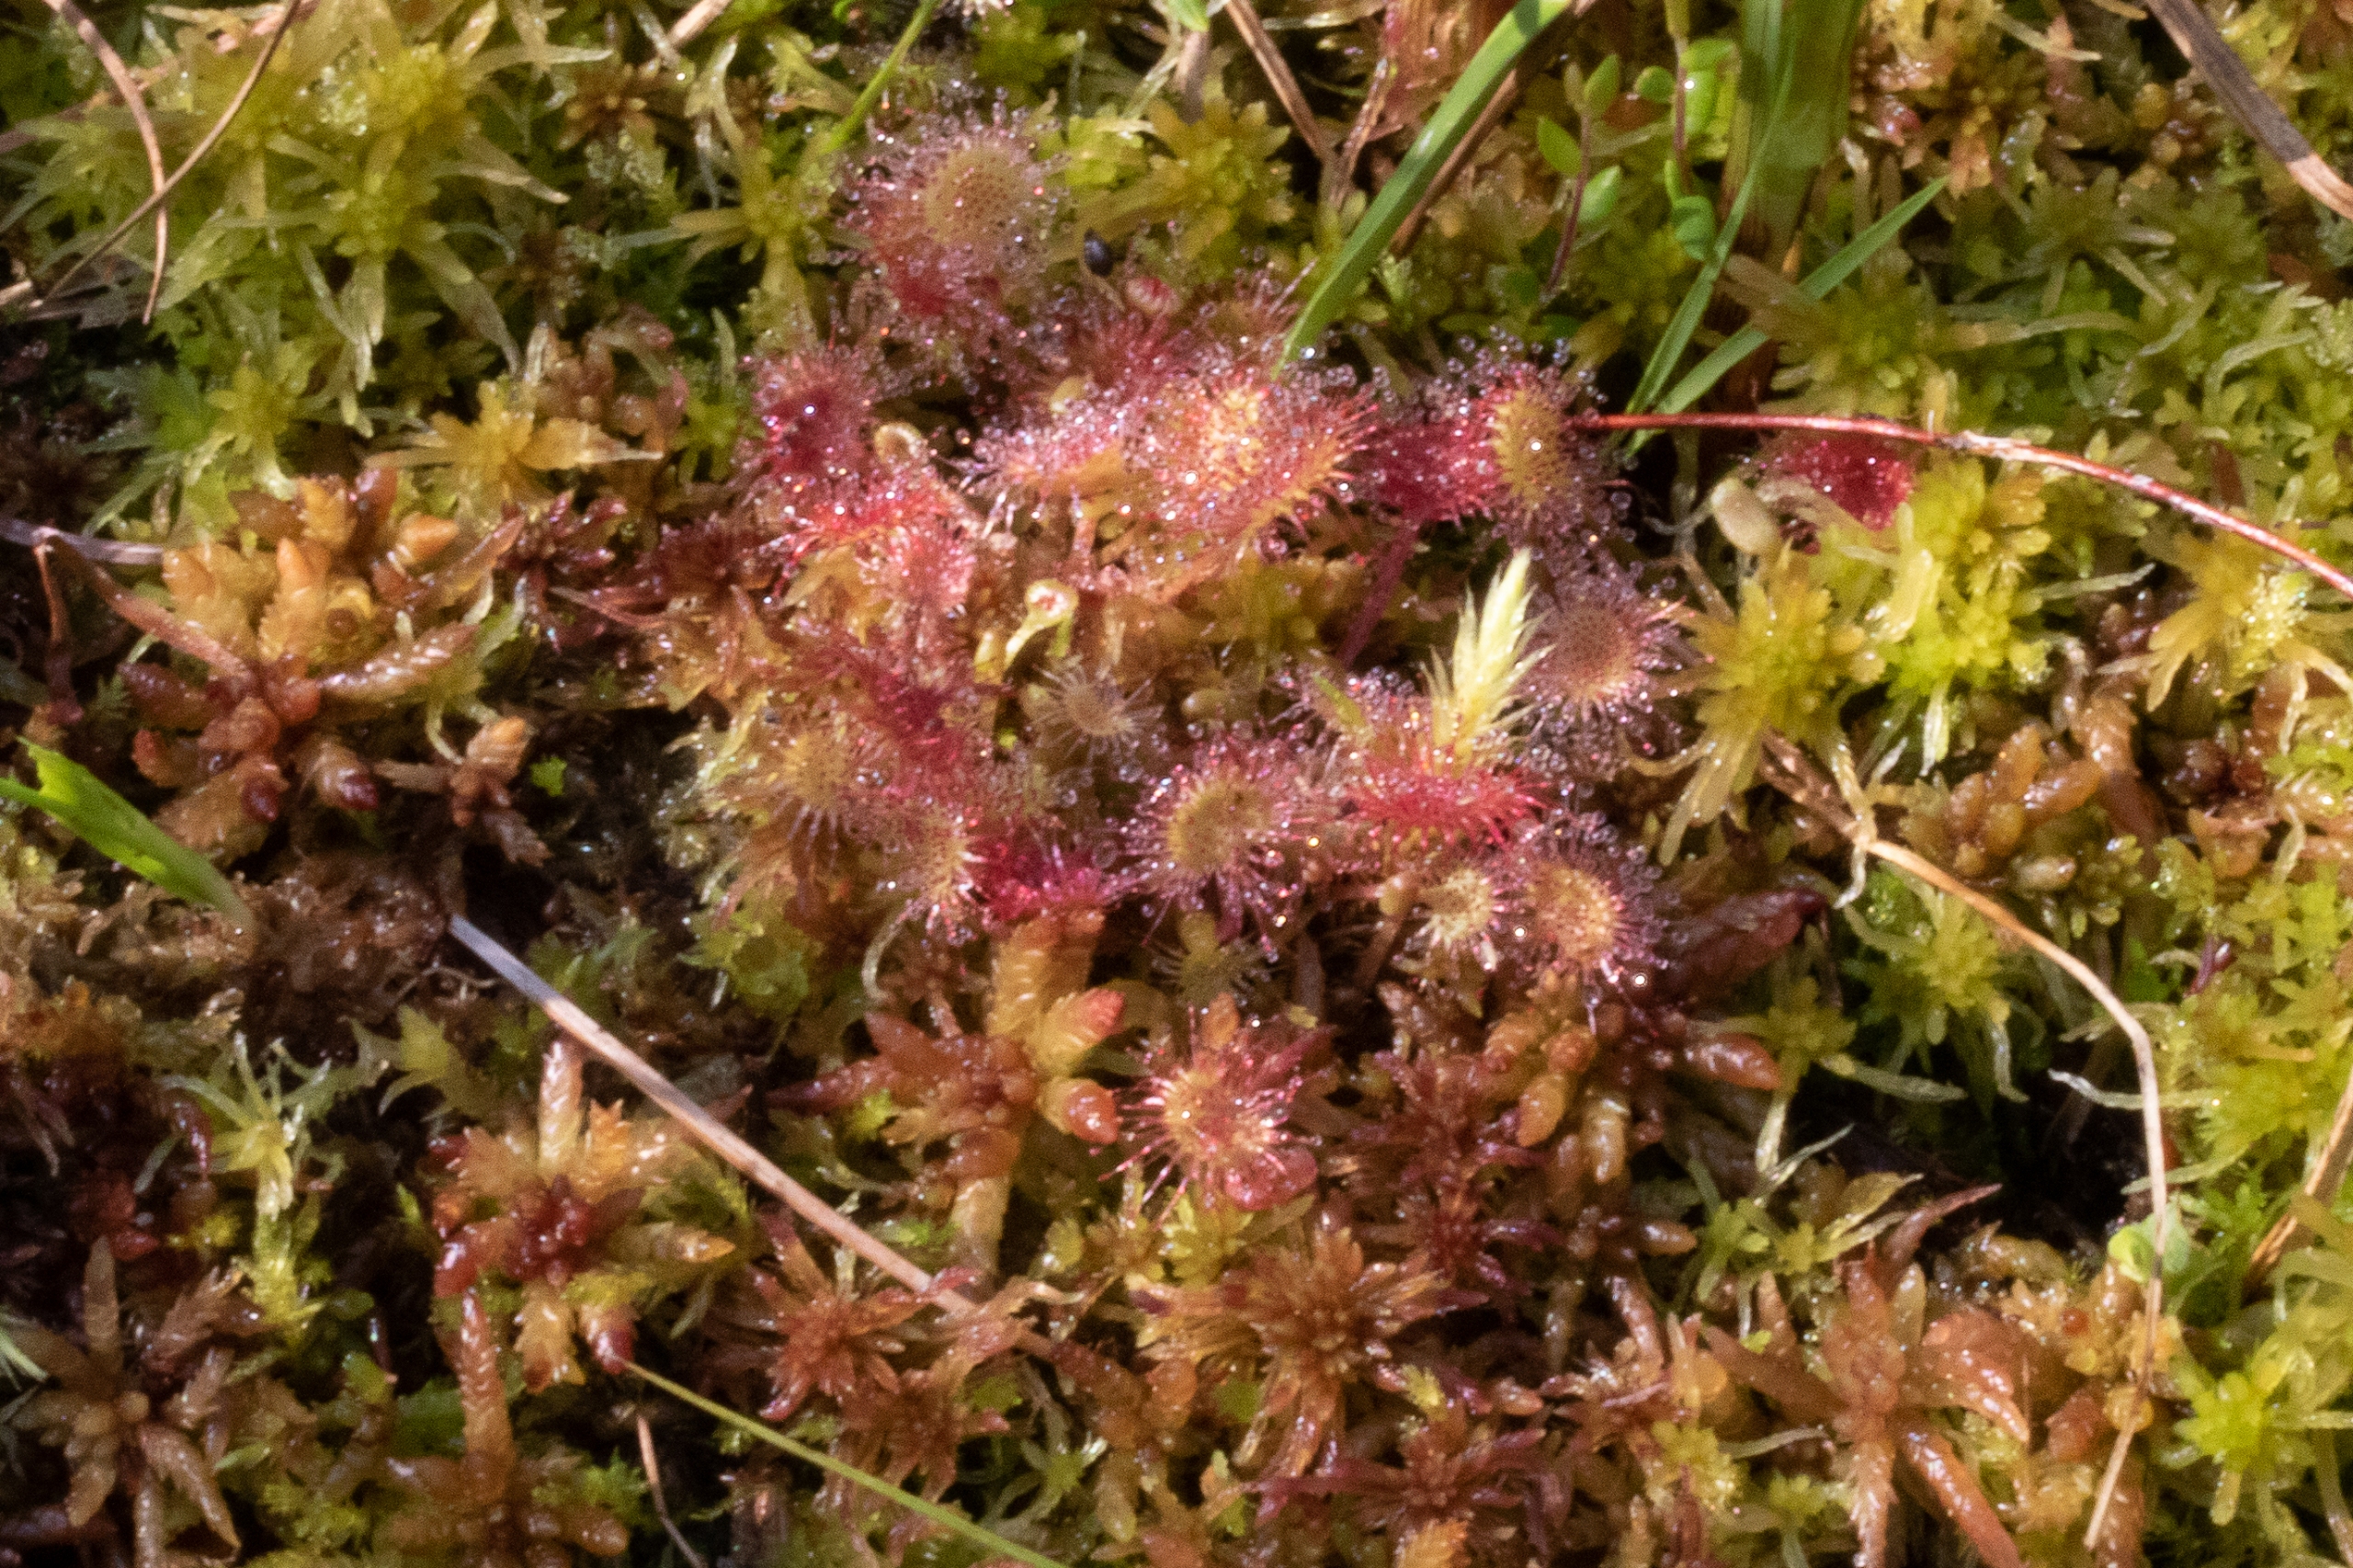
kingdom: Plantae
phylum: Tracheophyta
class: Magnoliopsida
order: Caryophyllales
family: Droseraceae
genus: Drosera
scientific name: Drosera rotundifolia
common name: Rundbladet soldug
